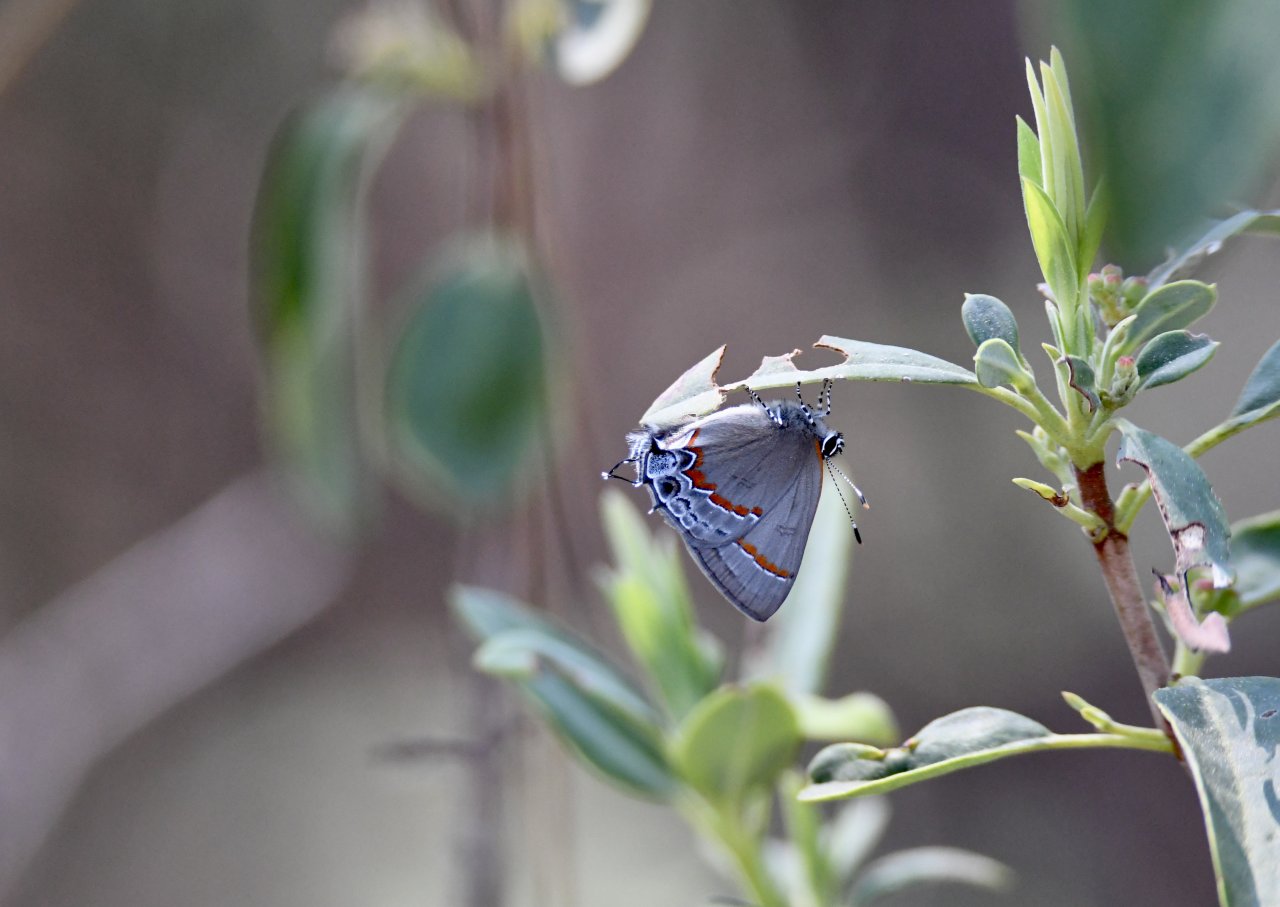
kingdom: Animalia
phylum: Arthropoda
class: Insecta
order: Lepidoptera
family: Lycaenidae
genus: Calycopis
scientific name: Calycopis cecrops
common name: Red-banded Hairstreak
